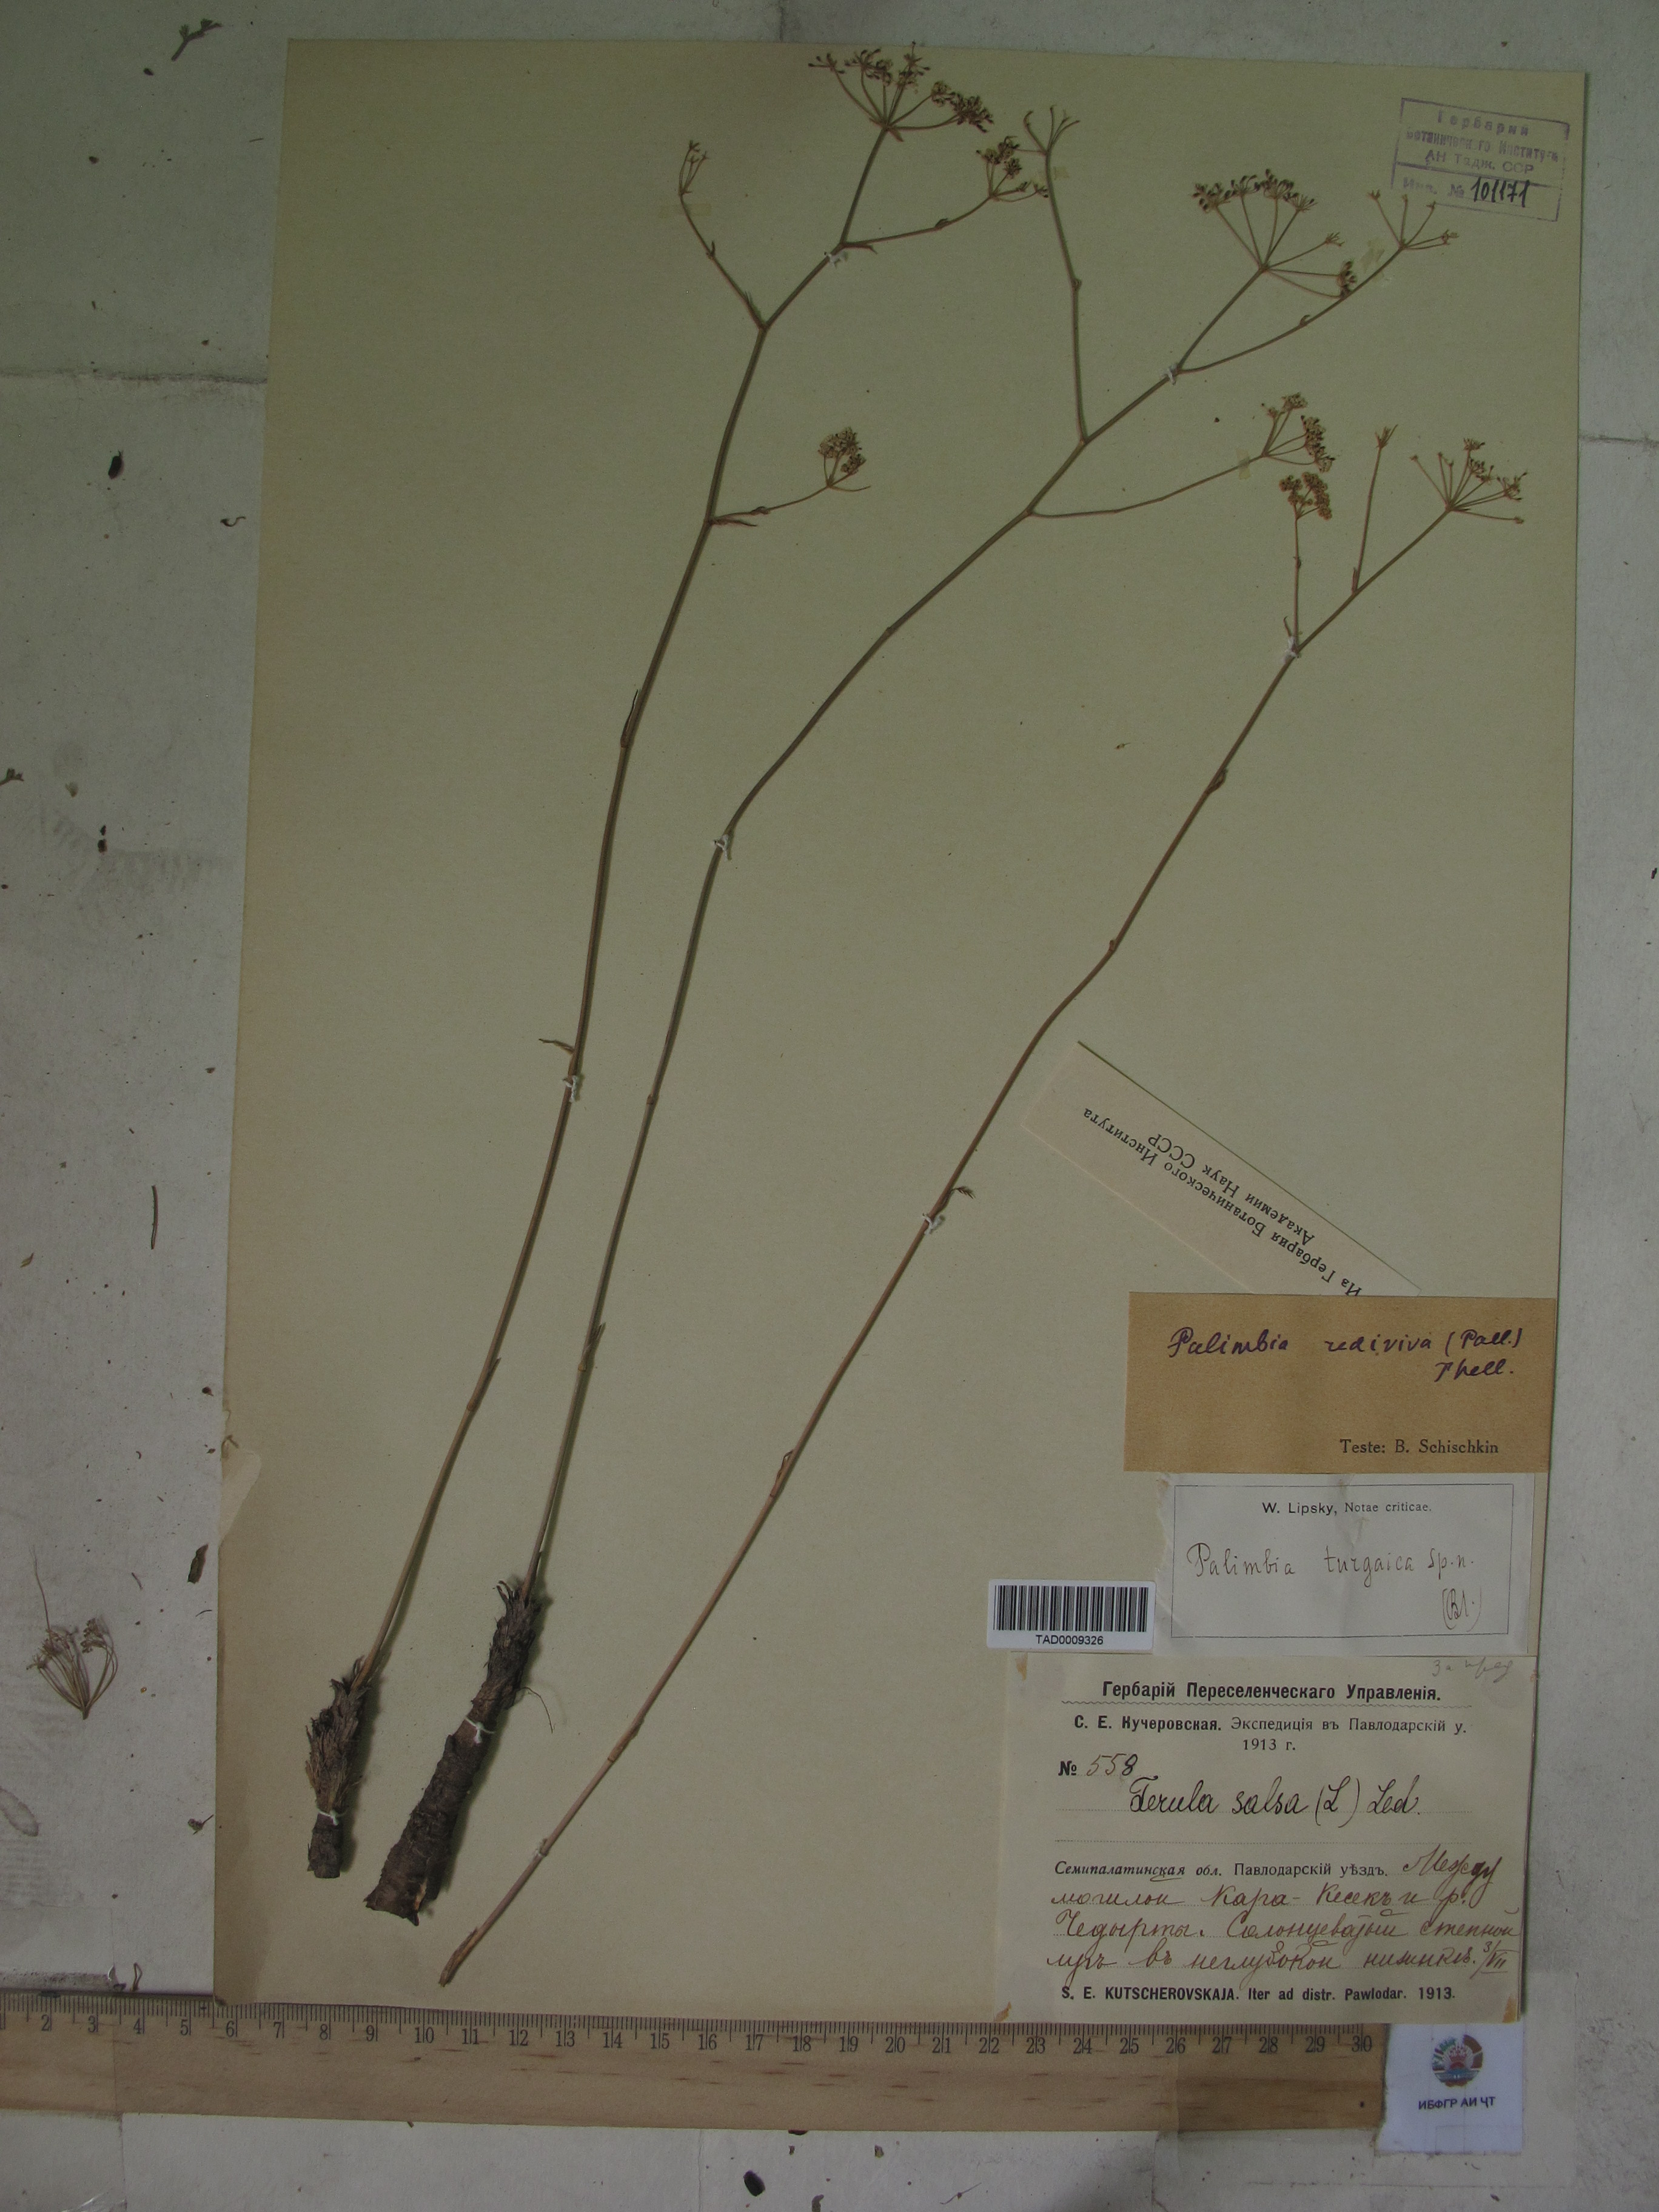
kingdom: Plantae
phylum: Tracheophyta
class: Magnoliopsida
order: Apiales
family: Apiaceae
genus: Ferula
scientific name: Ferula
